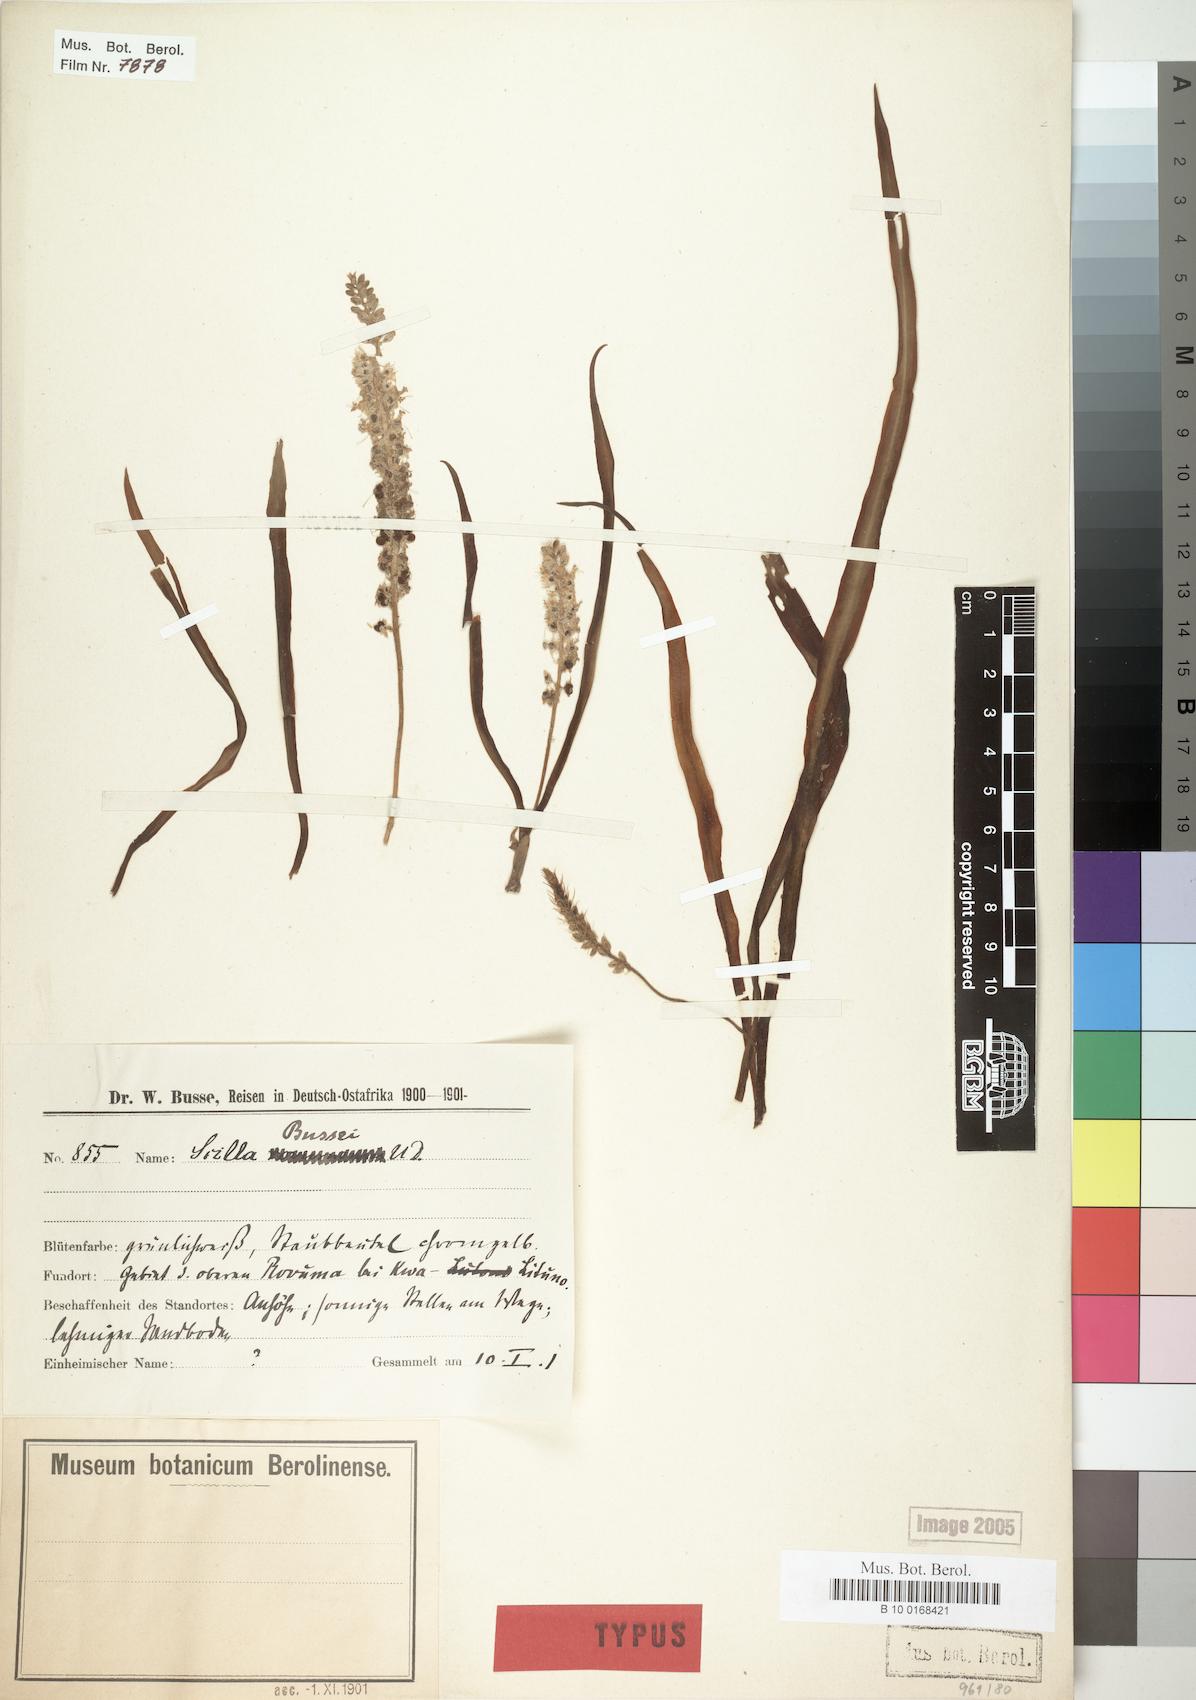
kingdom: Plantae
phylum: Tracheophyta
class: Liliopsida
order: Asparagales
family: Asparagaceae
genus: Scilla
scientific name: Scilla bussei
